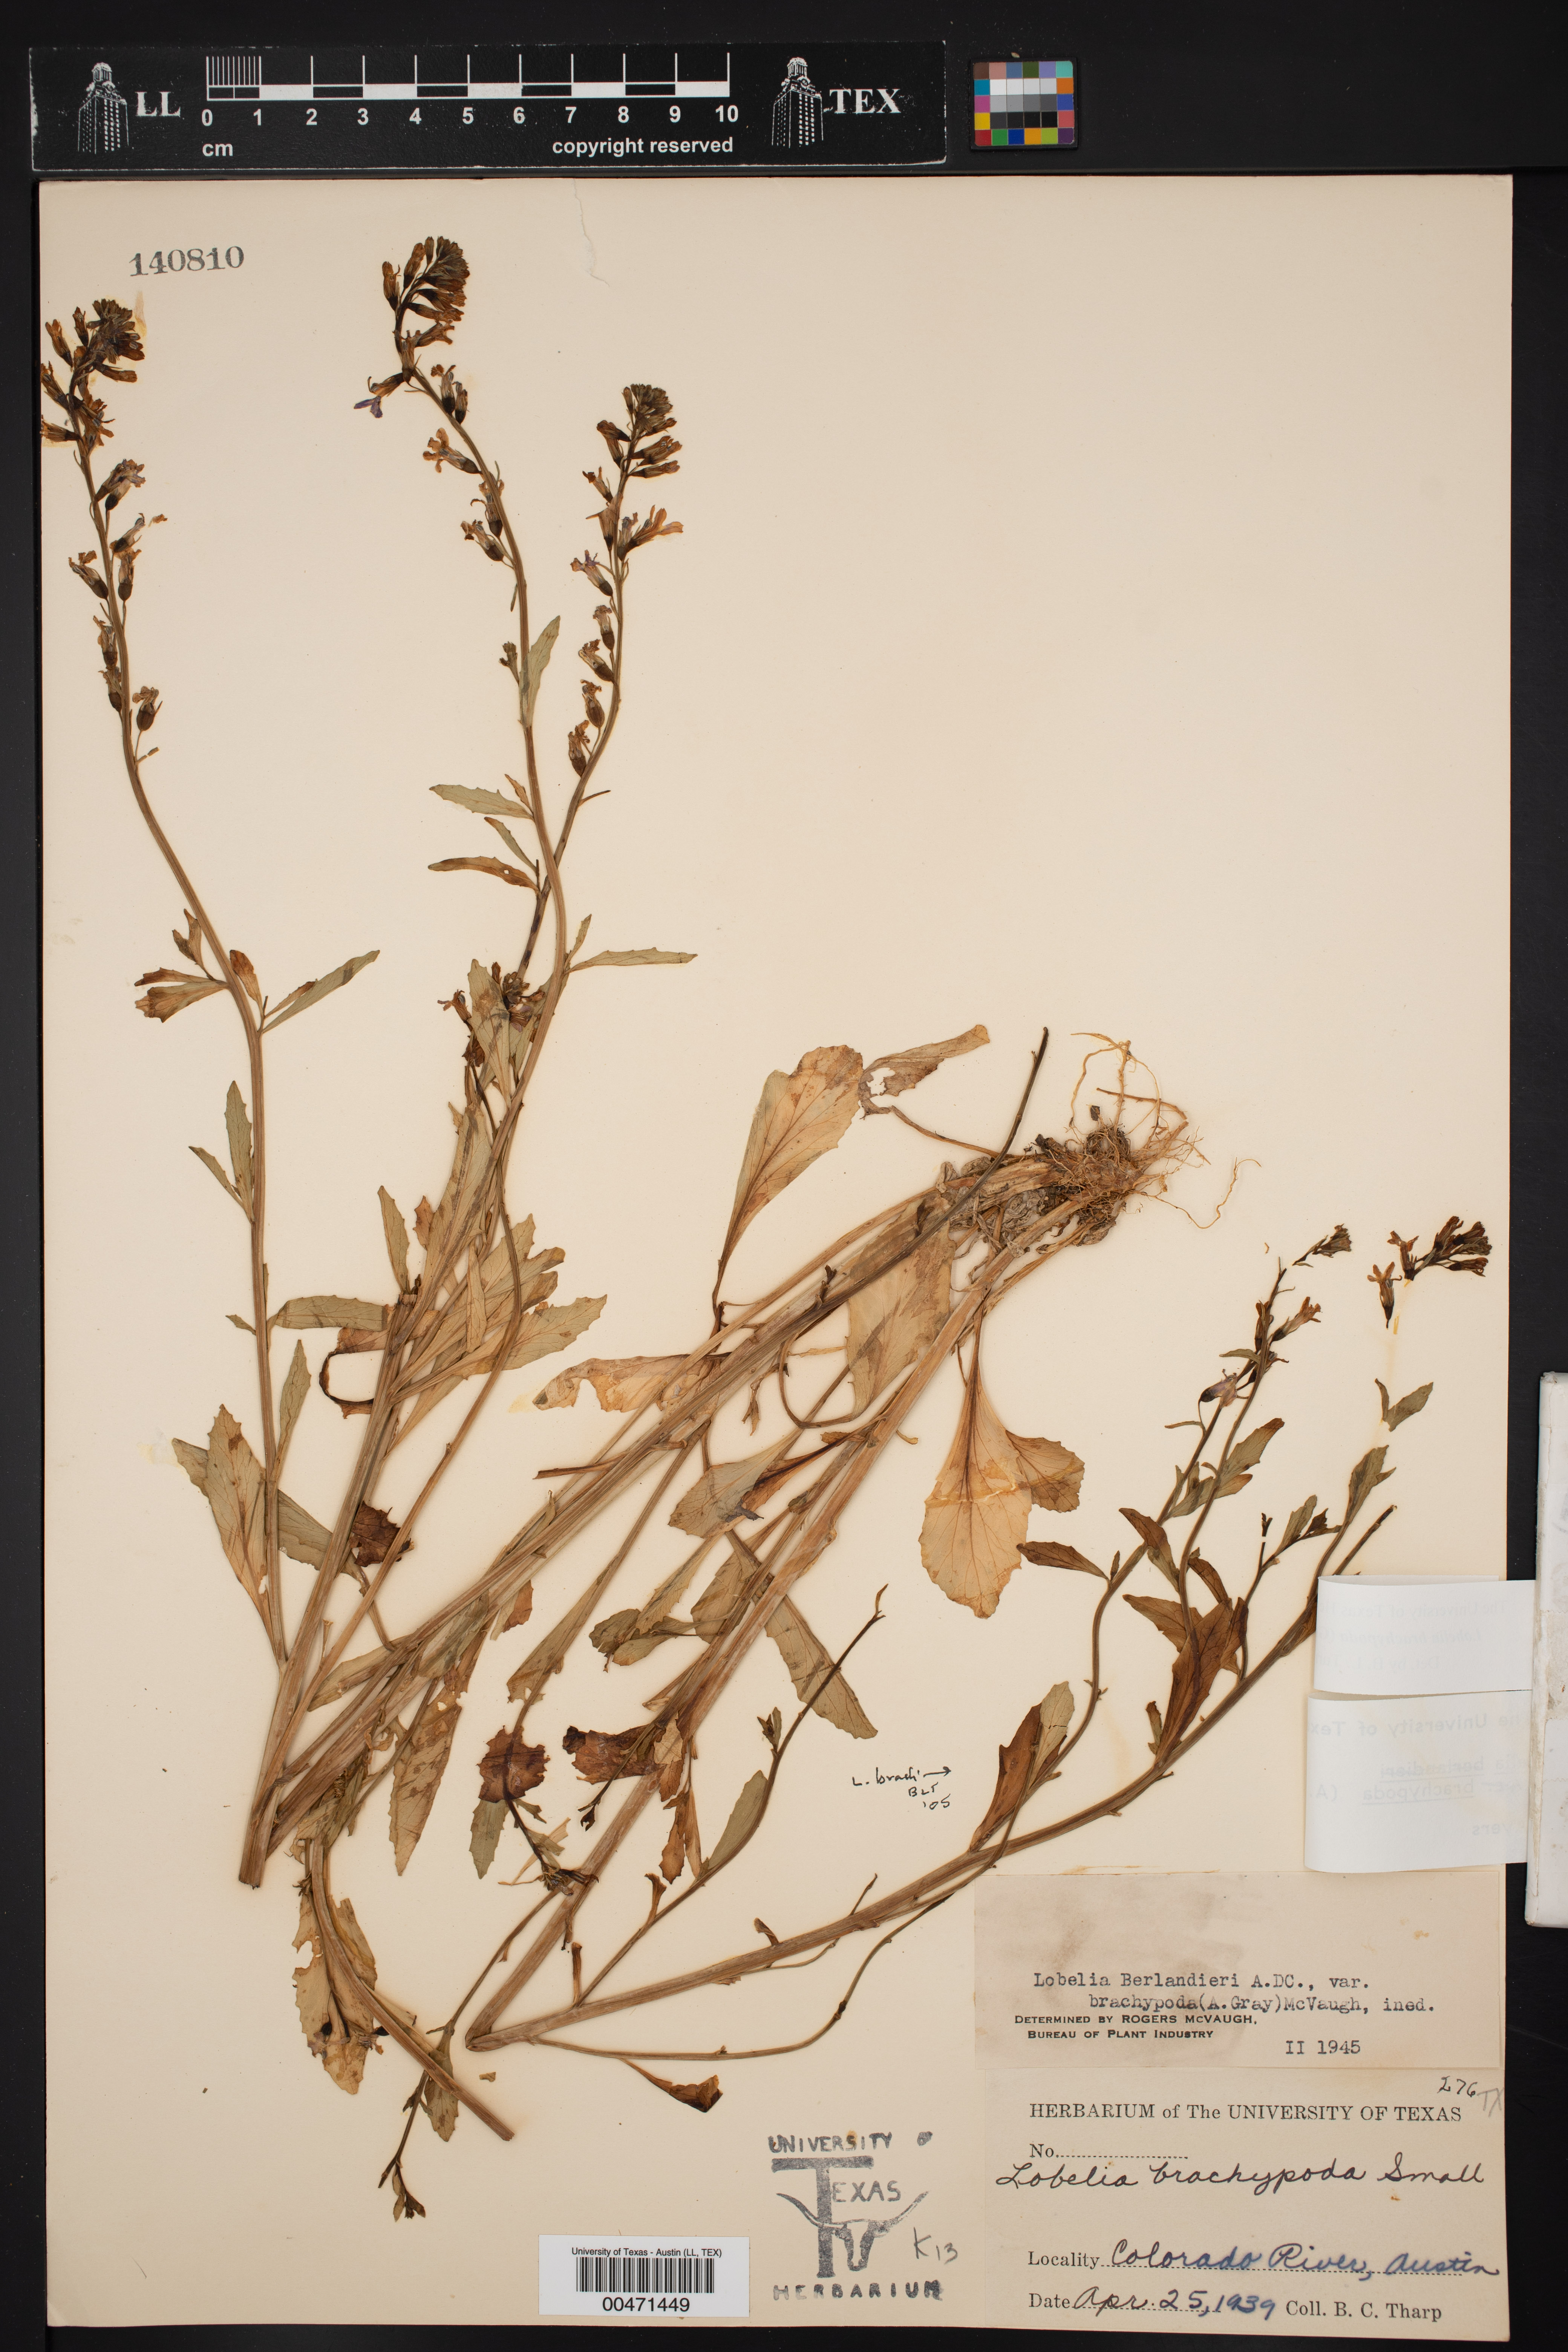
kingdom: Plantae
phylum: Tracheophyta
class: Magnoliopsida
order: Asterales
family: Campanulaceae
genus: Lobelia
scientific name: Lobelia berlandieri
